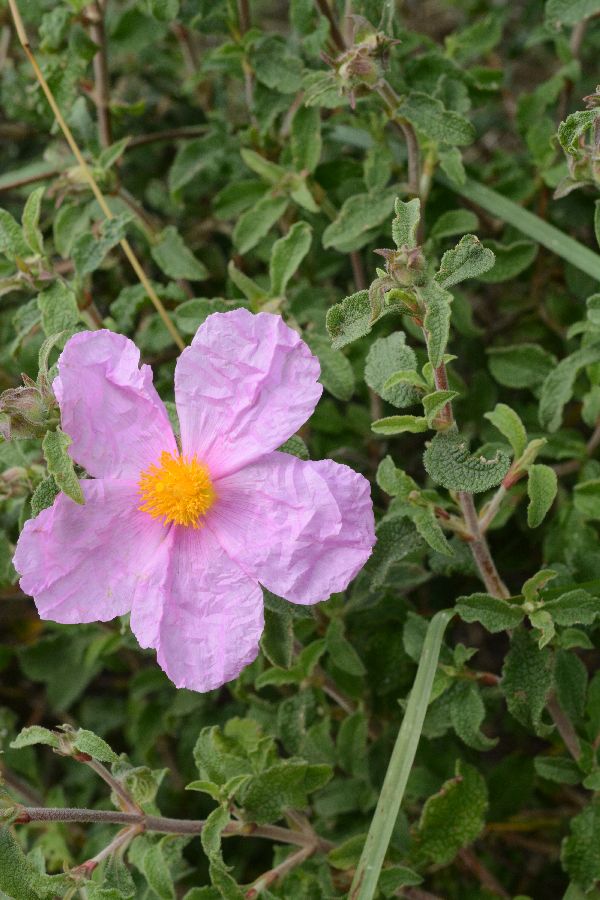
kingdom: Plantae
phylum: Tracheophyta
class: Magnoliopsida
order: Malvales
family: Cistaceae
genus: Cistus
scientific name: Cistus creticus
